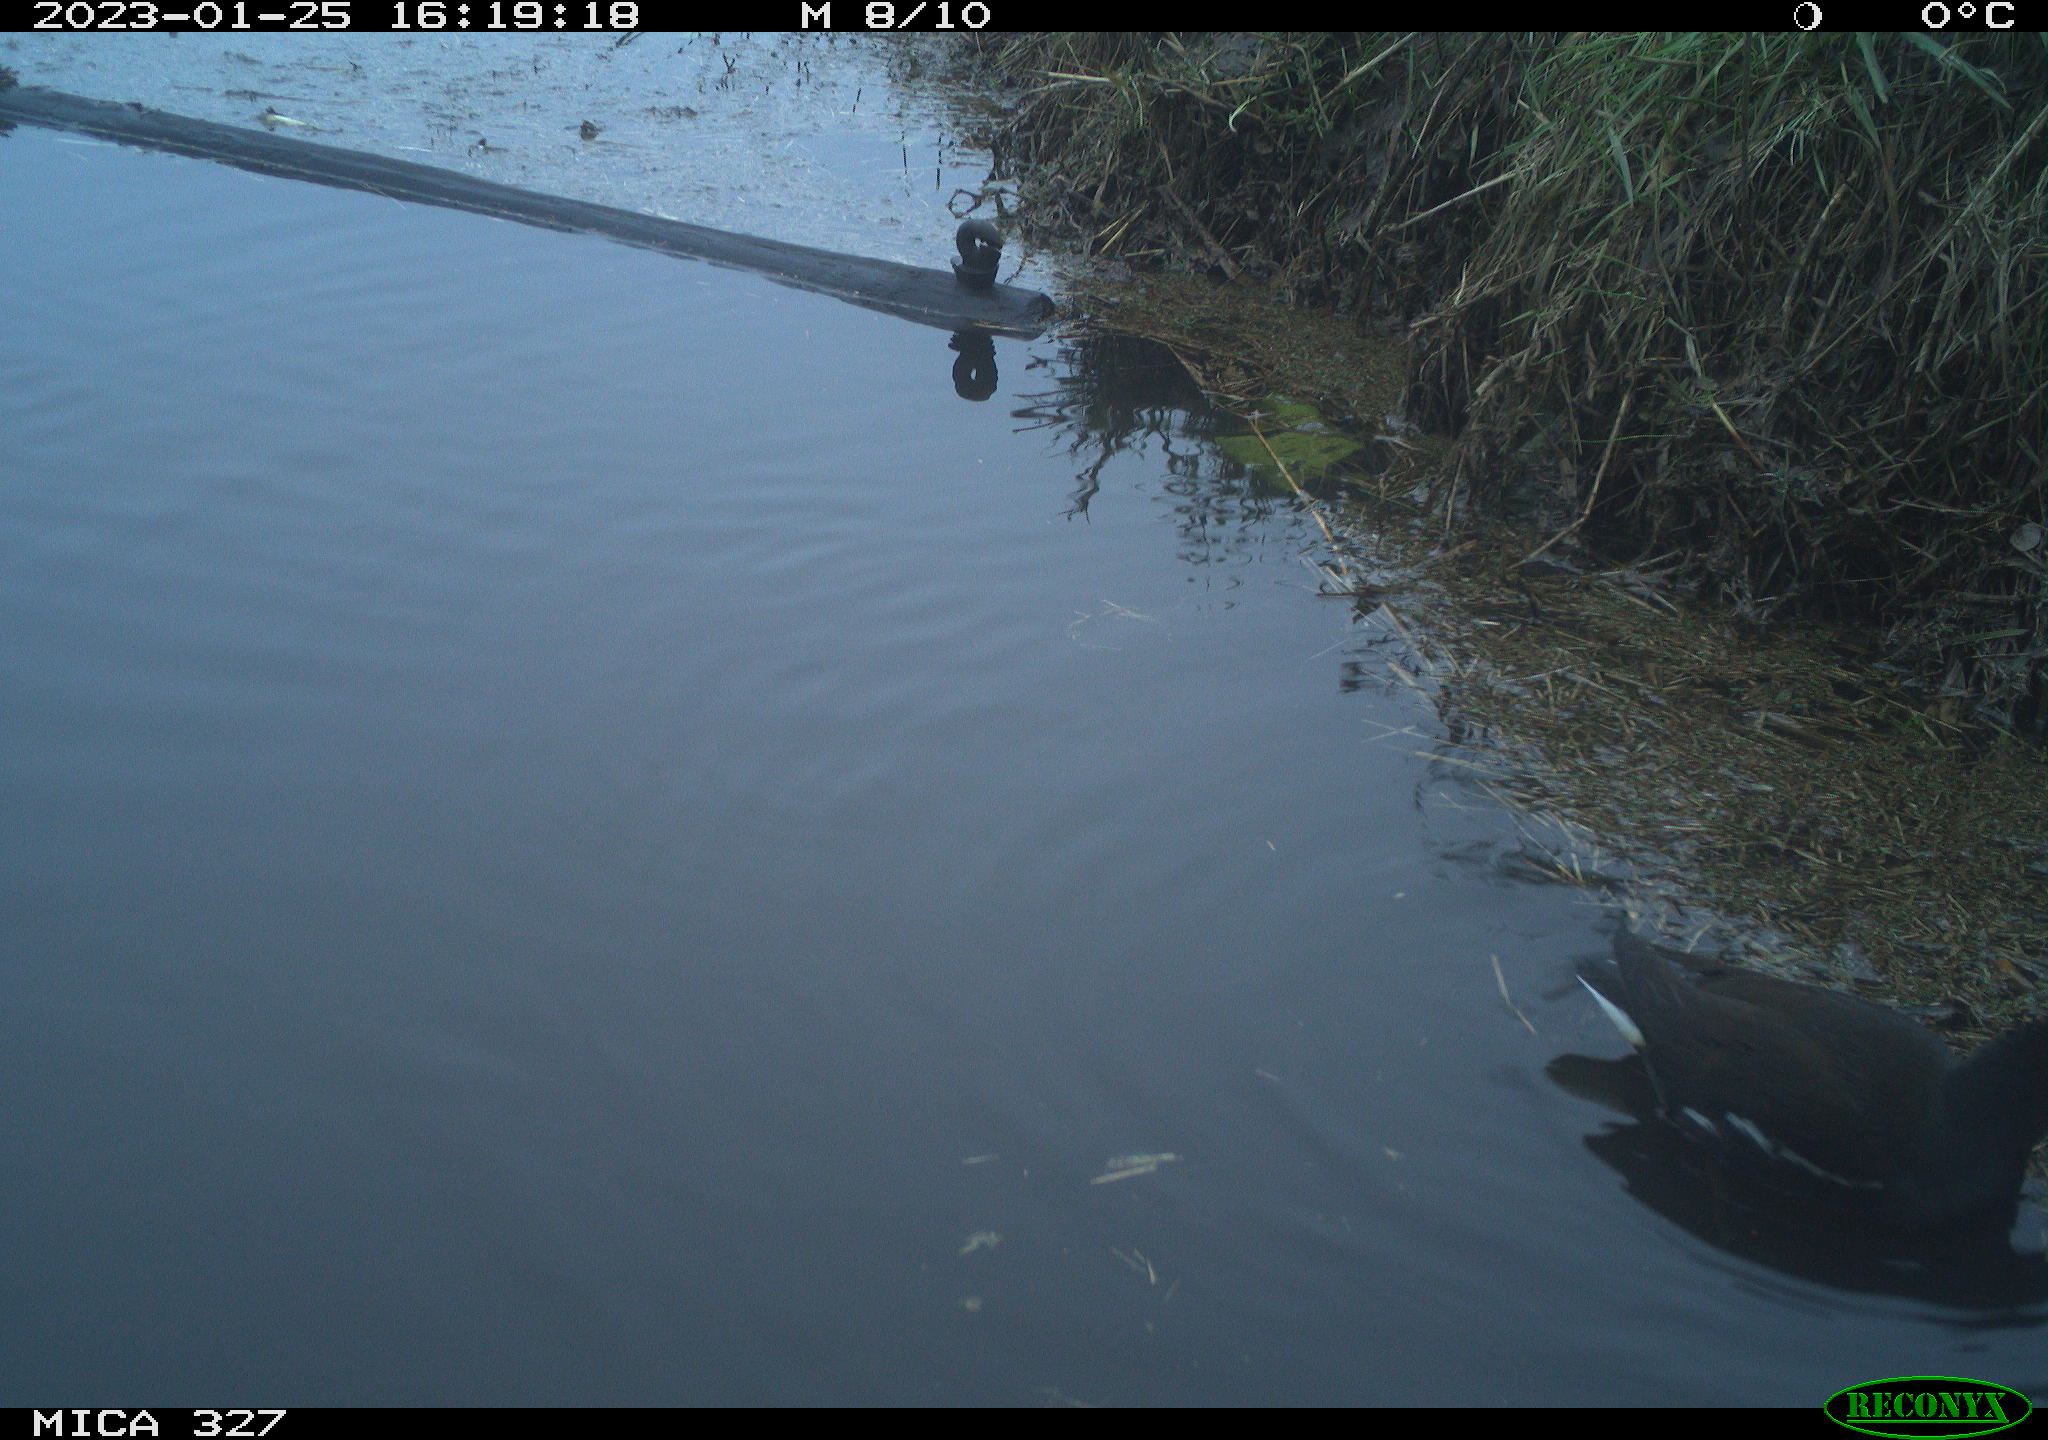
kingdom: Animalia
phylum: Chordata
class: Aves
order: Gruiformes
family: Rallidae
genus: Gallinula
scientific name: Gallinula chloropus
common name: Common moorhen
